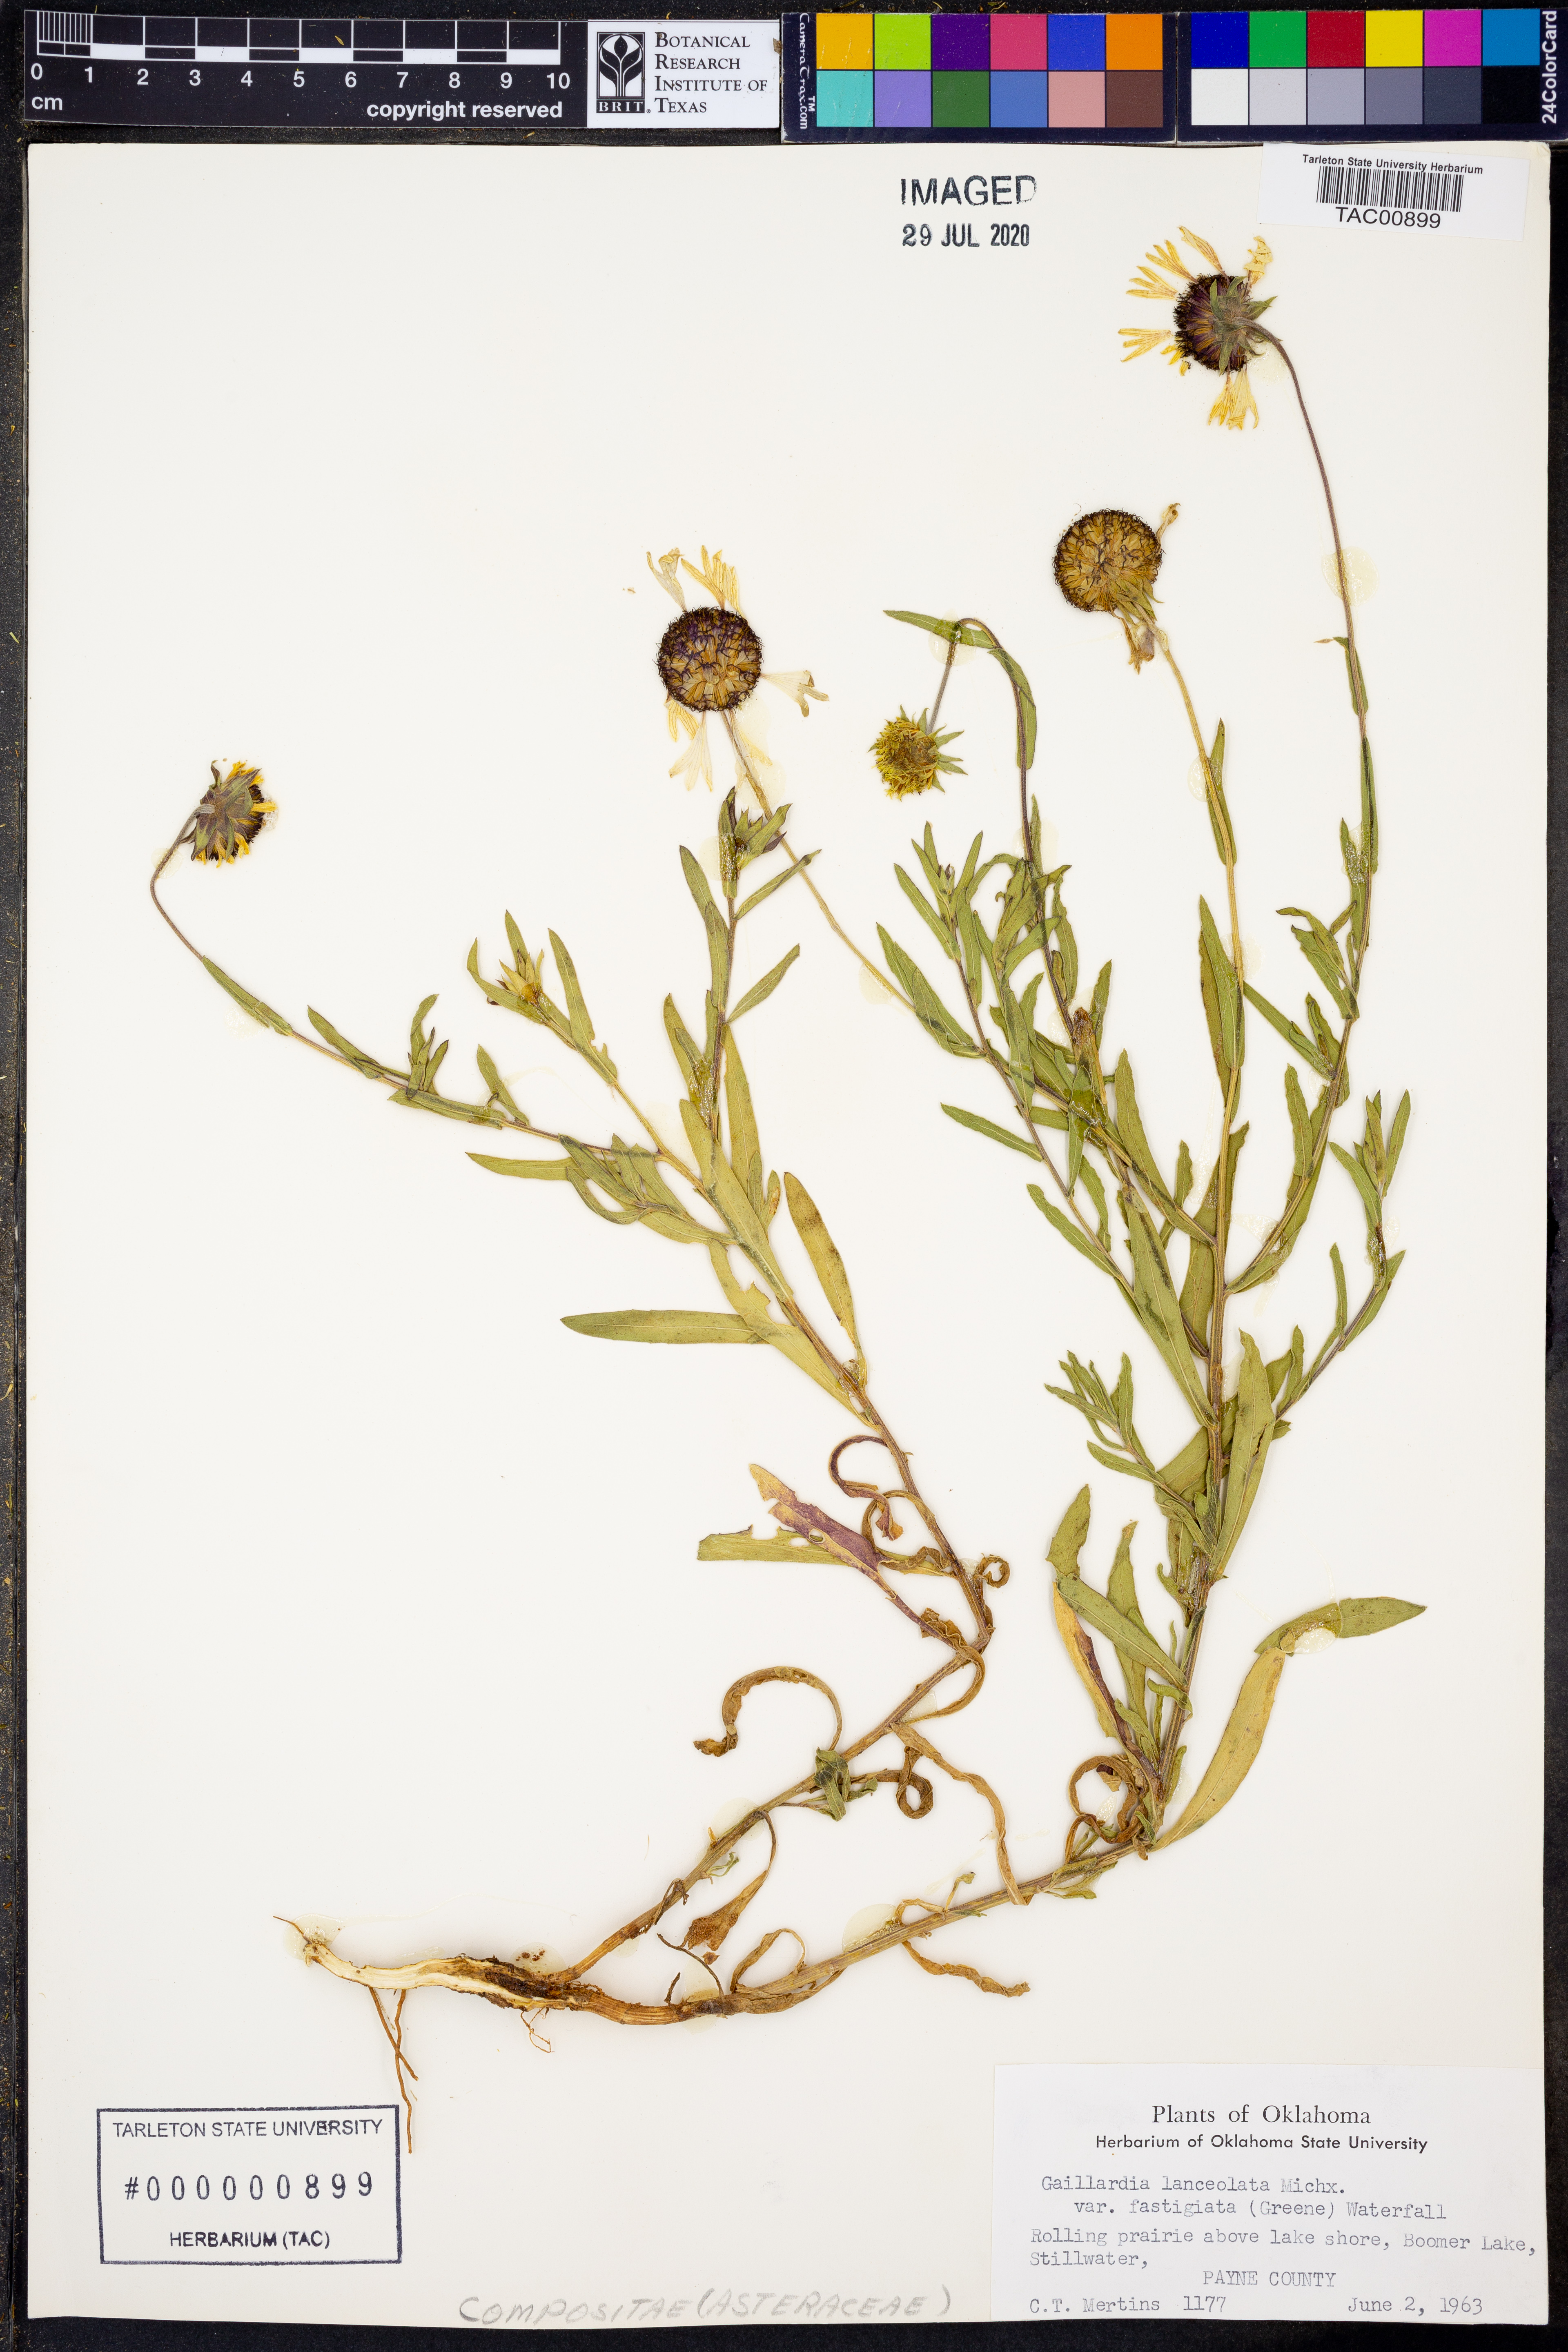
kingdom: Plantae
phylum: Tracheophyta
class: Magnoliopsida
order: Asterales
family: Asteraceae
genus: Gaillardia
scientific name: Gaillardia aestivalis
